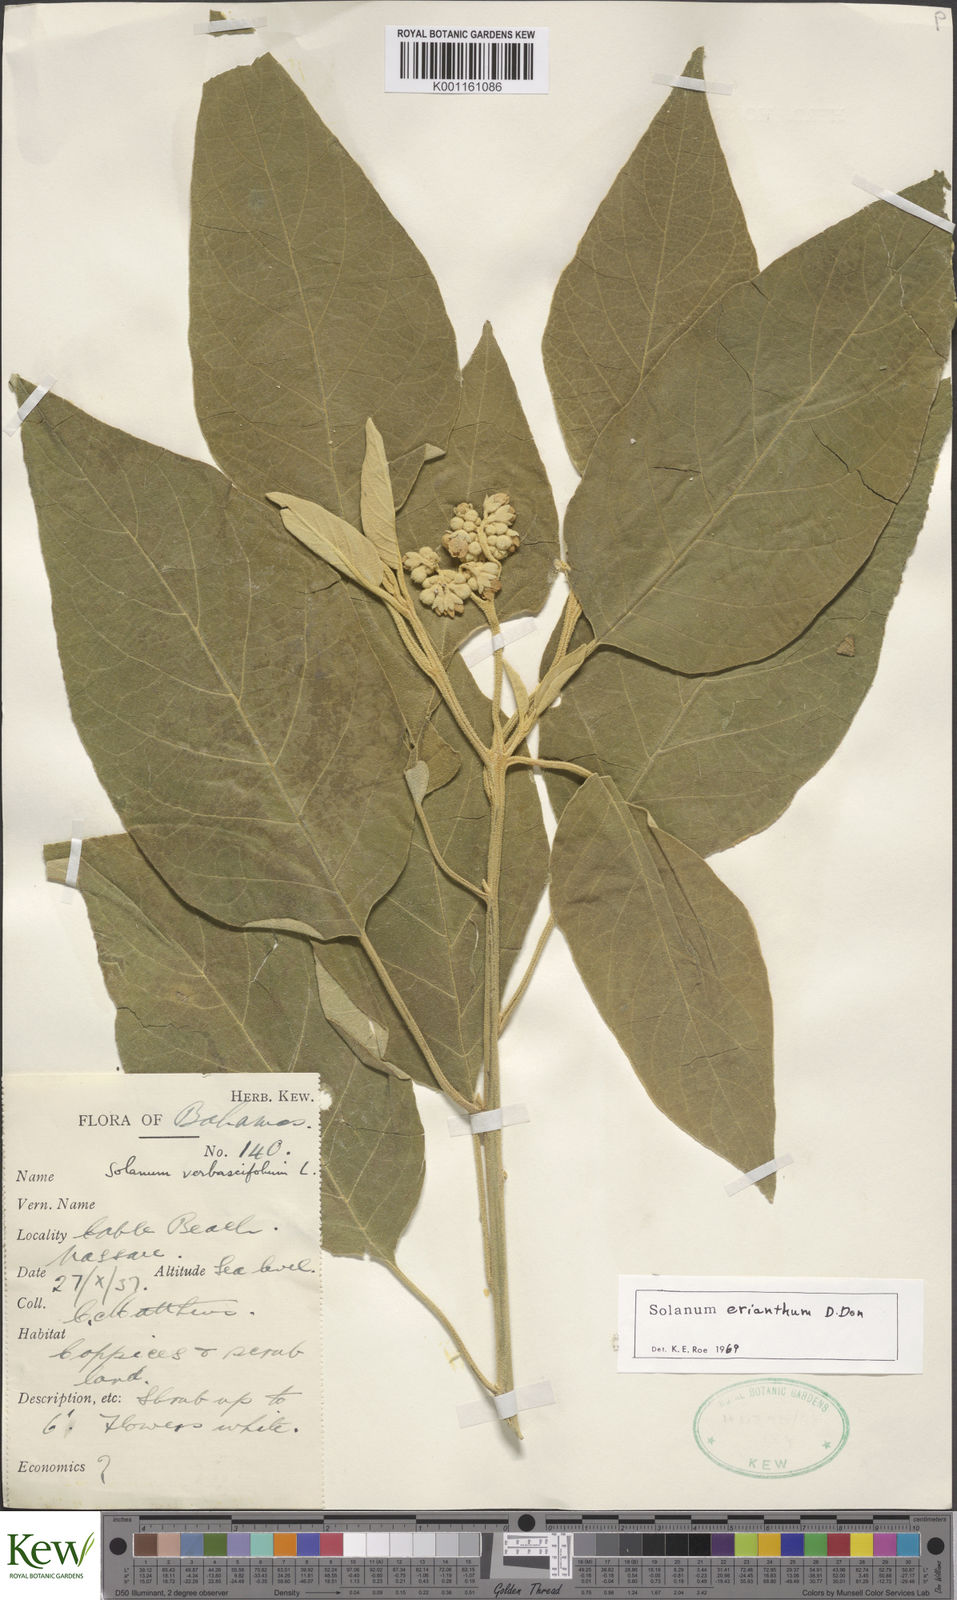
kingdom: Plantae
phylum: Tracheophyta
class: Magnoliopsida
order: Solanales
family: Solanaceae
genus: Solanum
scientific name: Solanum erianthum
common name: Tobacco-tree
